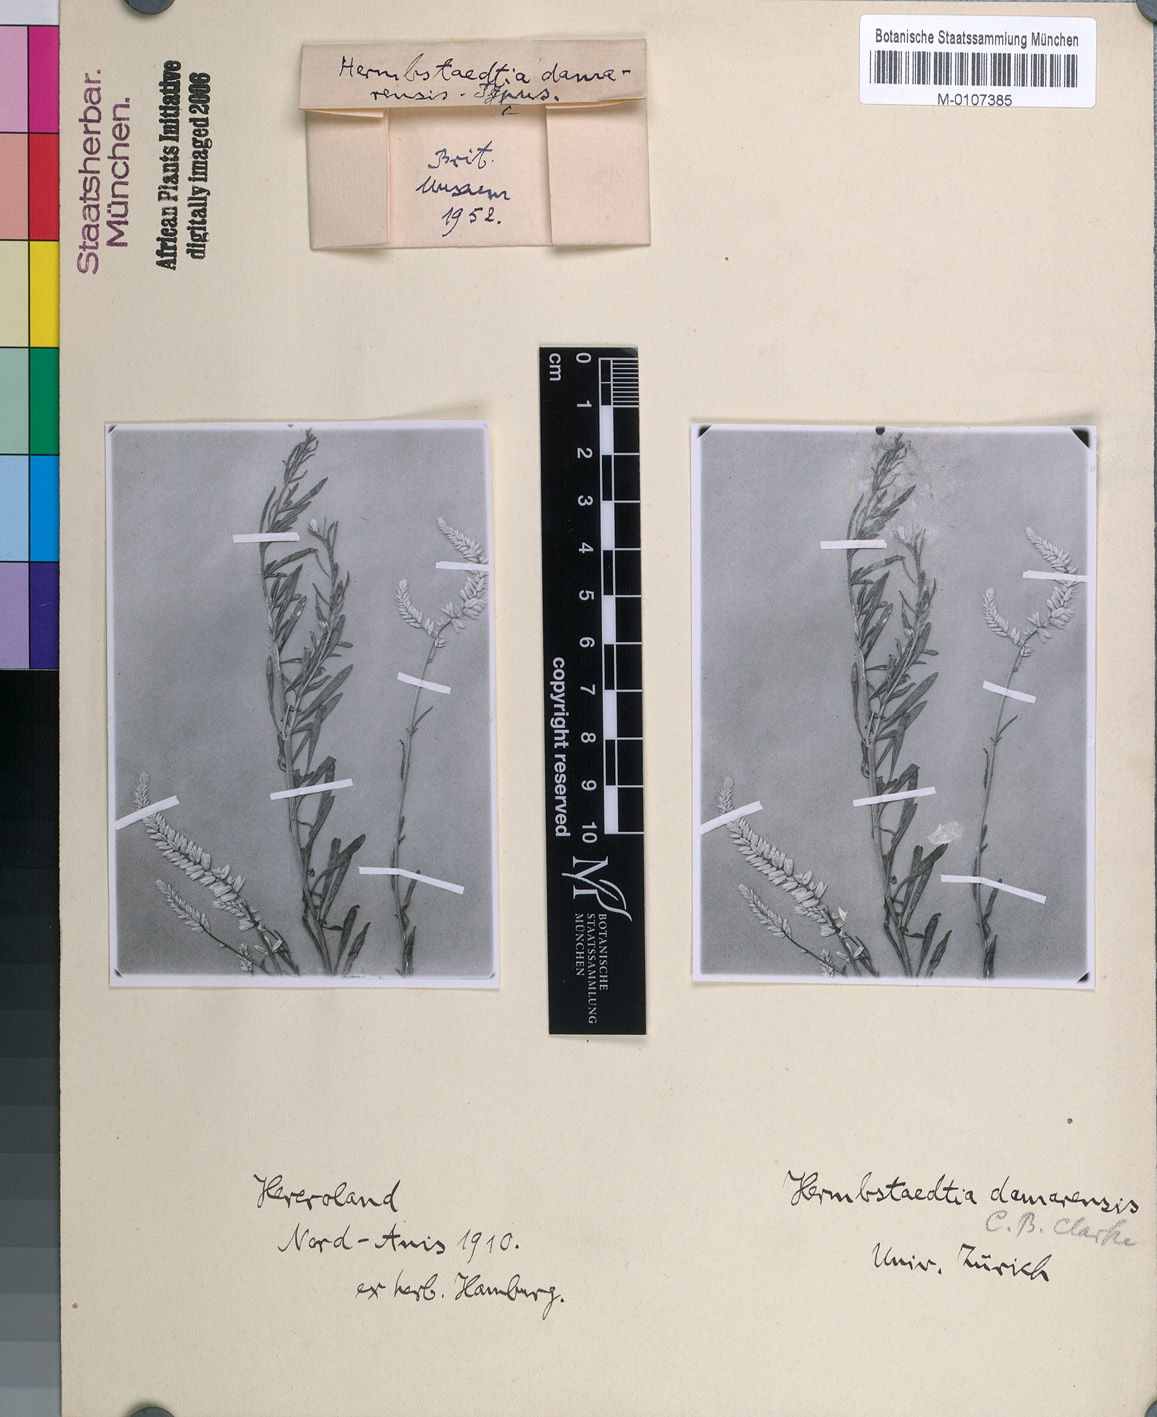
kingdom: Plantae
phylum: Tracheophyta
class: Magnoliopsida
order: Caryophyllales
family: Amaranthaceae
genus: Hermbstaedtia
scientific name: Hermbstaedtia odorata
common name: Guineaflower
